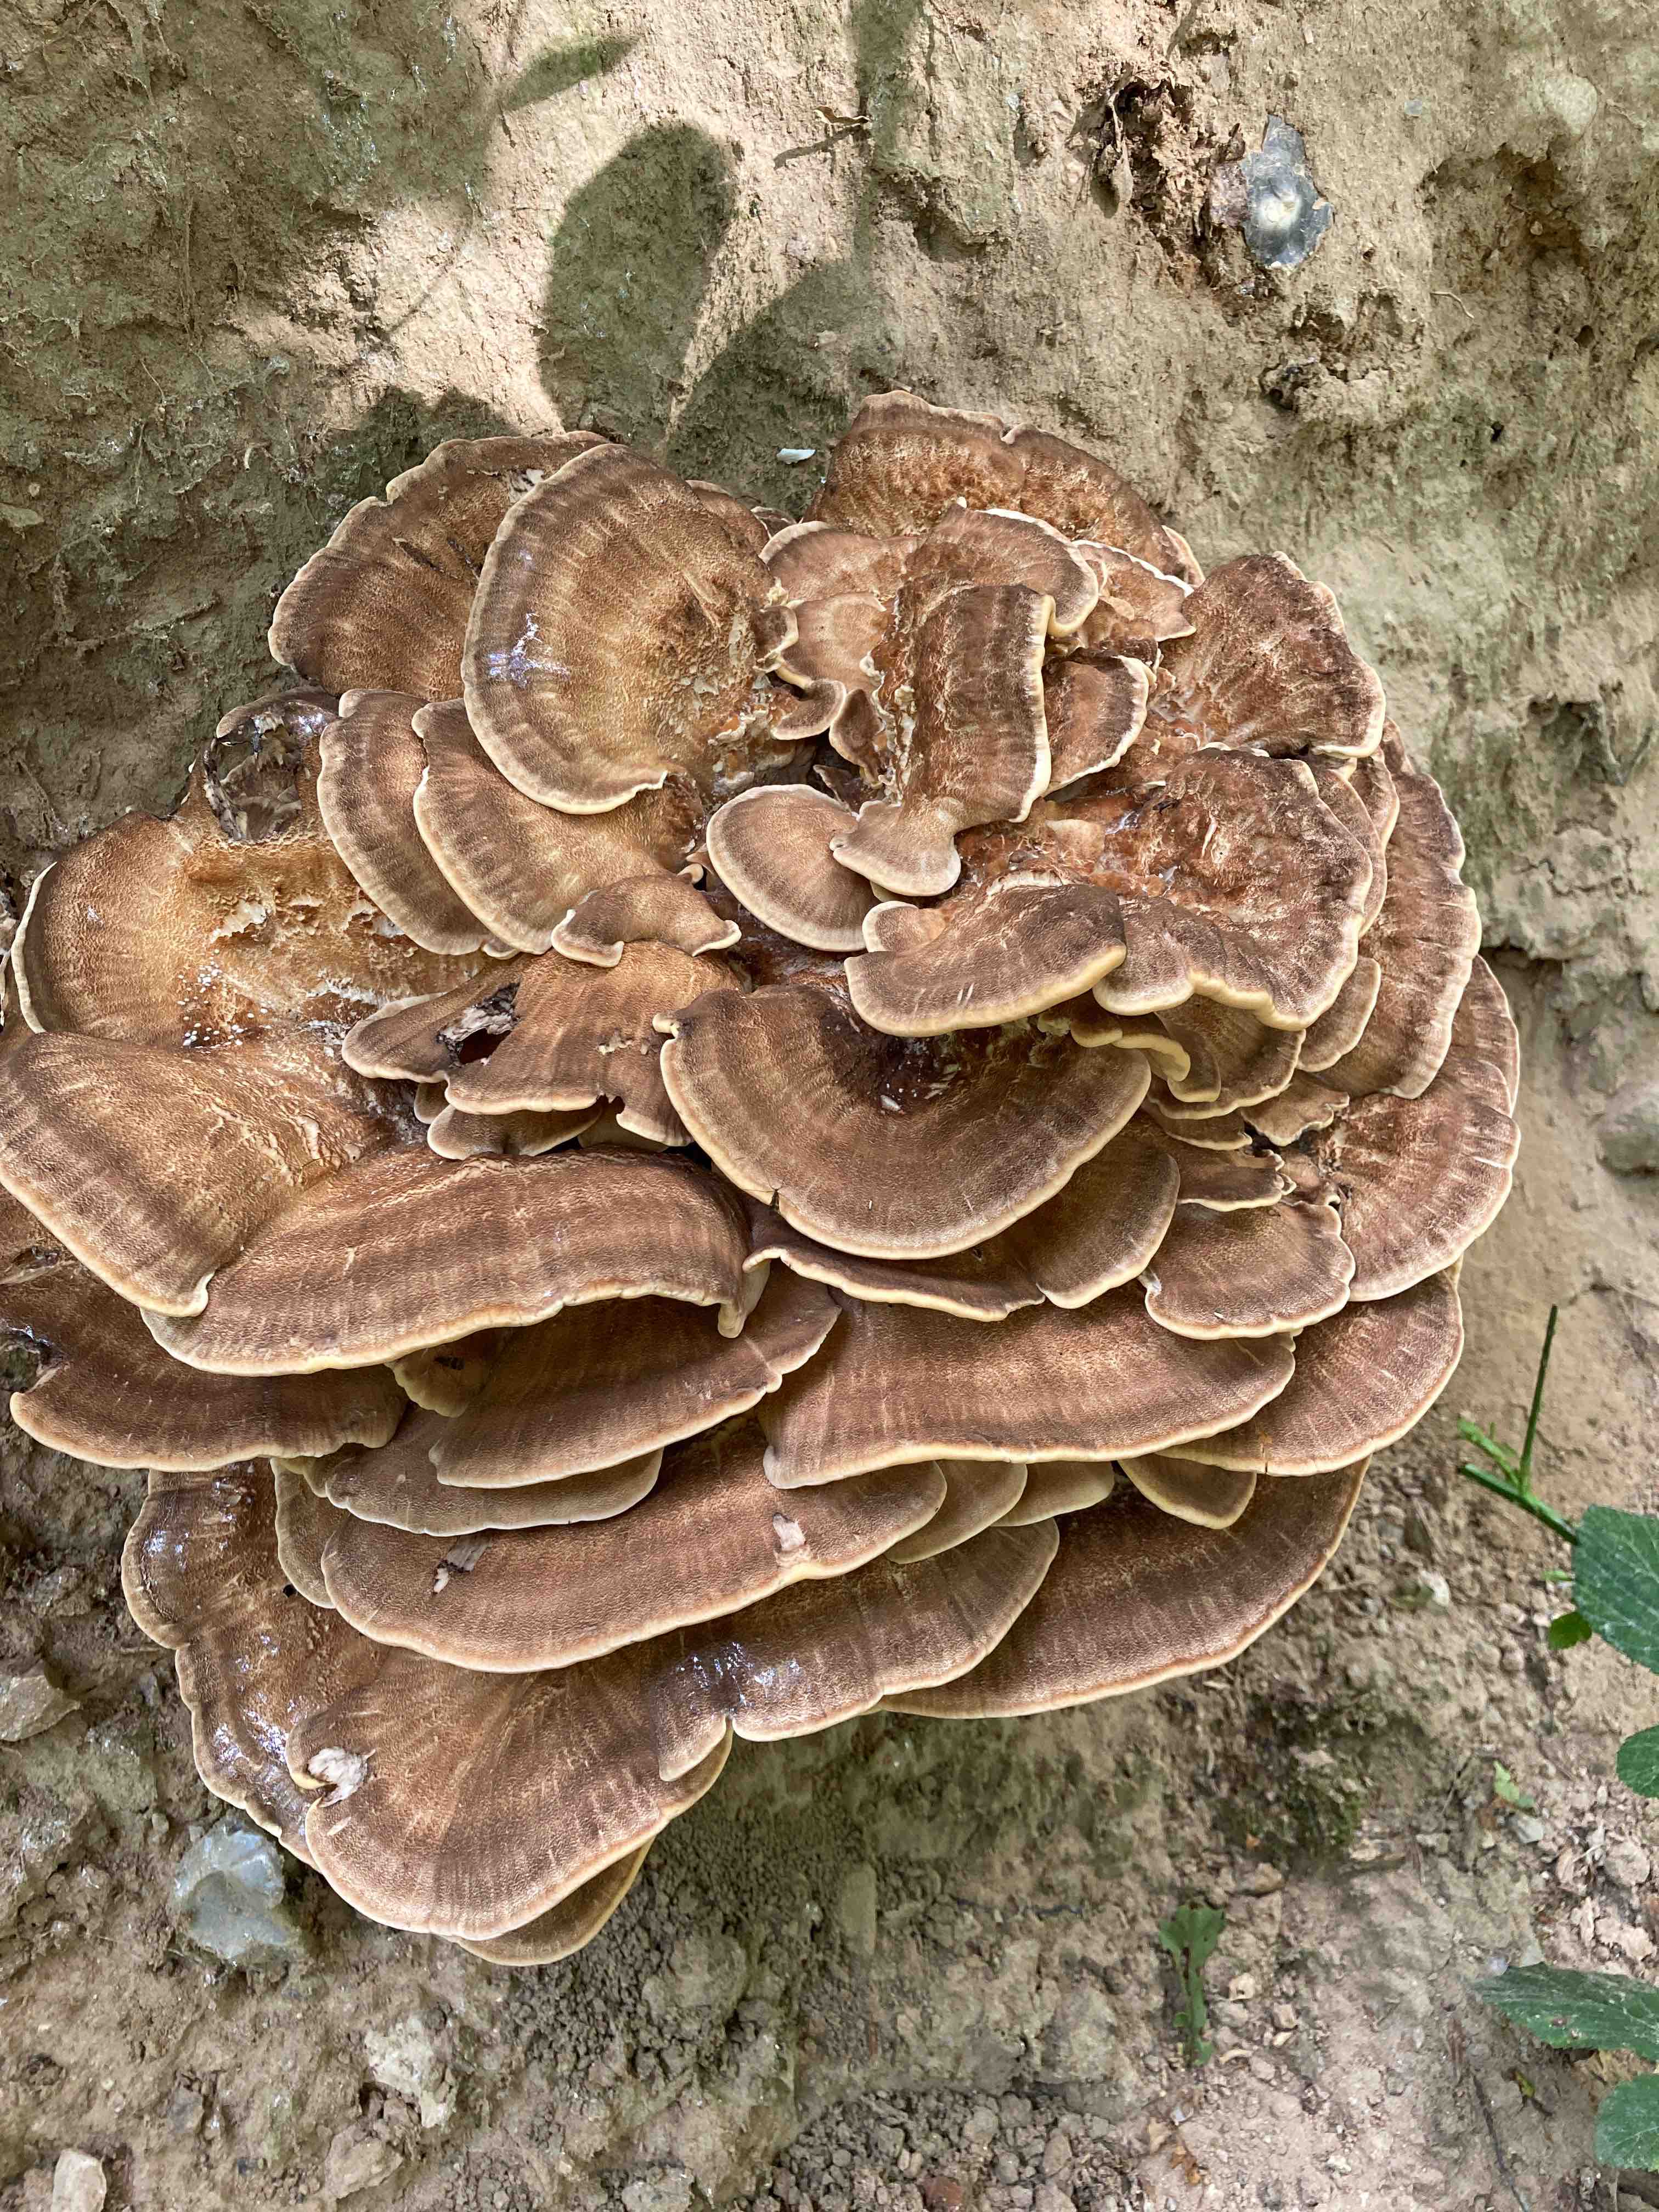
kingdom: Fungi
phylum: Basidiomycota
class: Agaricomycetes
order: Polyporales
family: Meripilaceae
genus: Meripilus
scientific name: Meripilus giganteus
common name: kæmpeporesvamp
